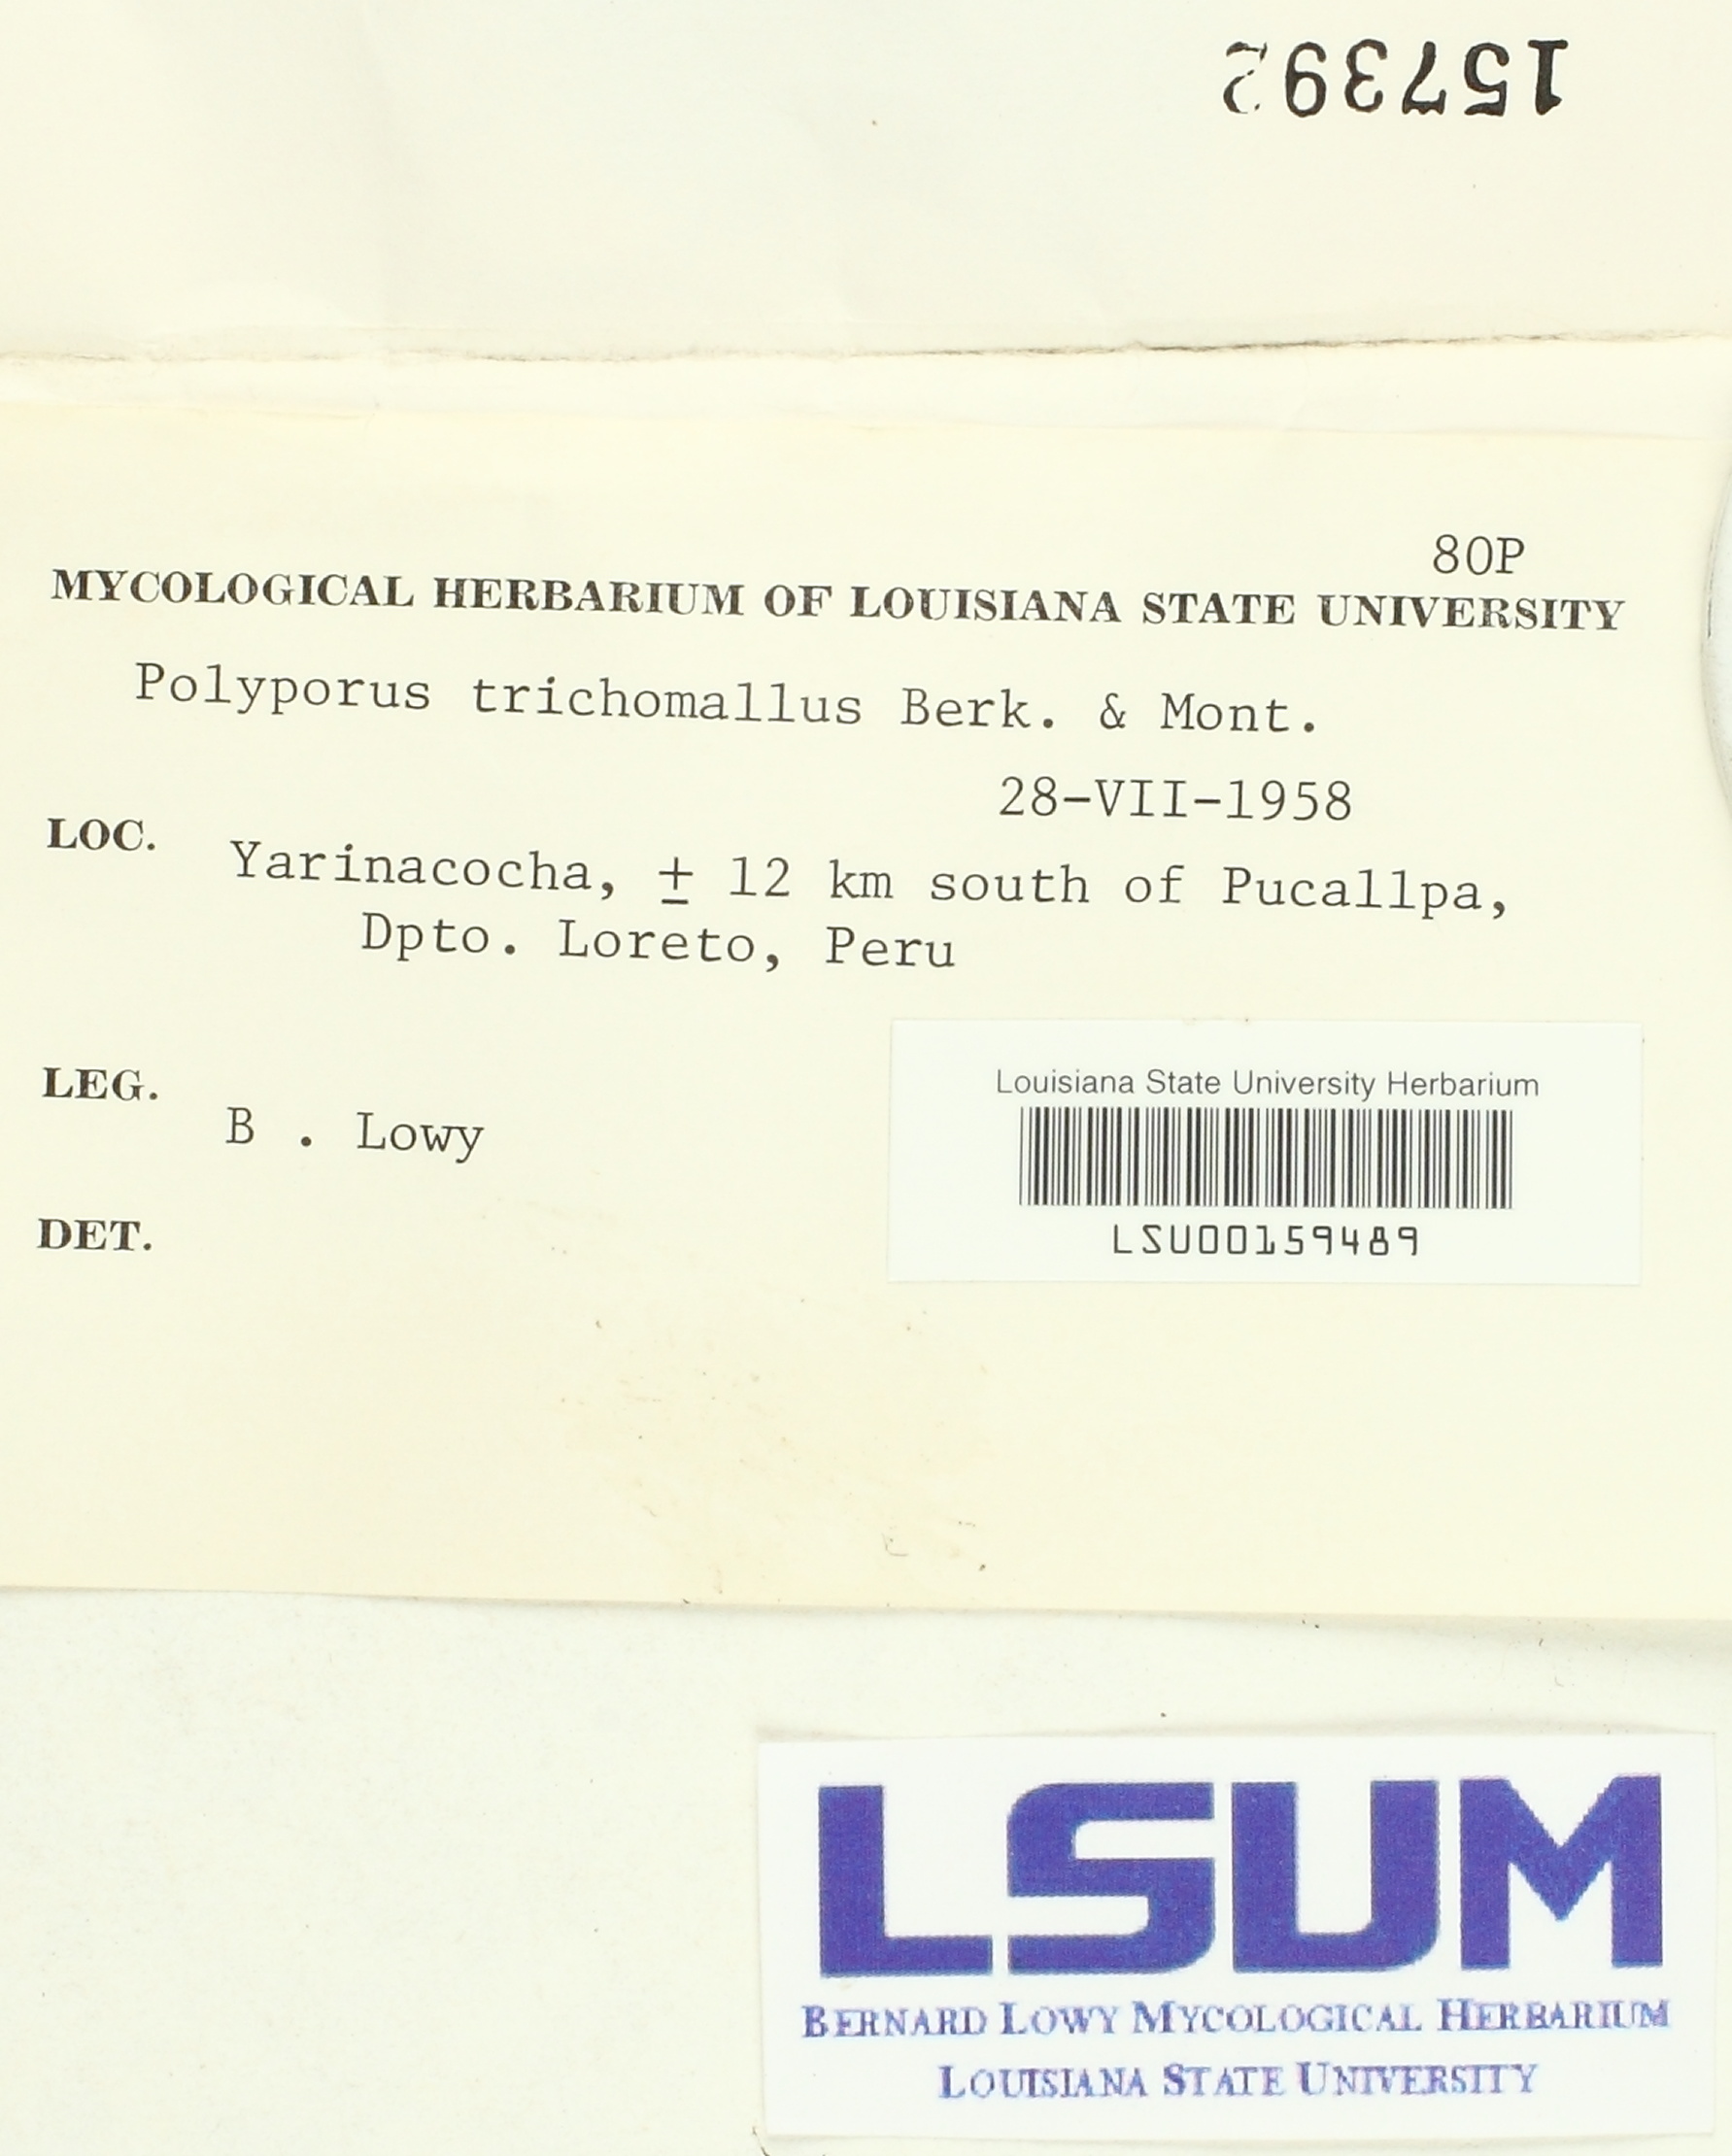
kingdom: Fungi
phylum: Basidiomycota
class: Agaricomycetes
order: Hymenochaetales
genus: Trichaptum
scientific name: Trichaptum trichomallum
